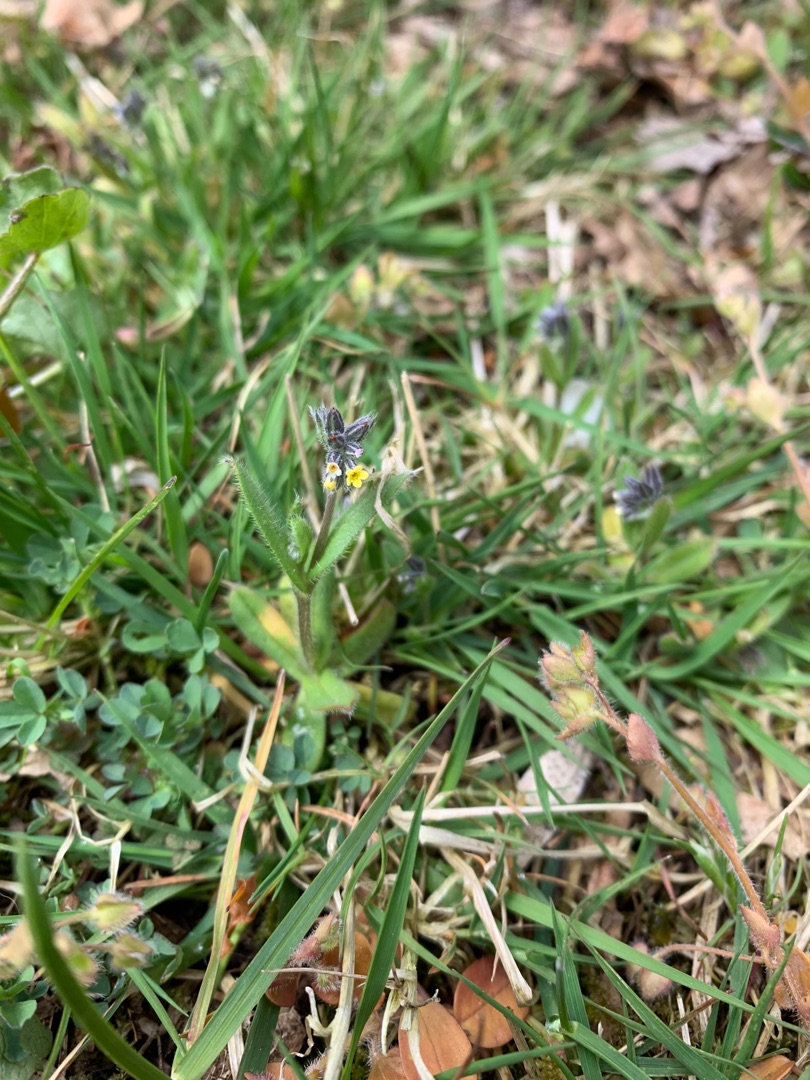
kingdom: Plantae
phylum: Tracheophyta
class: Magnoliopsida
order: Boraginales
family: Boraginaceae
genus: Myosotis
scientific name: Myosotis discolor
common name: Forskelligfarvet forglemmigej
